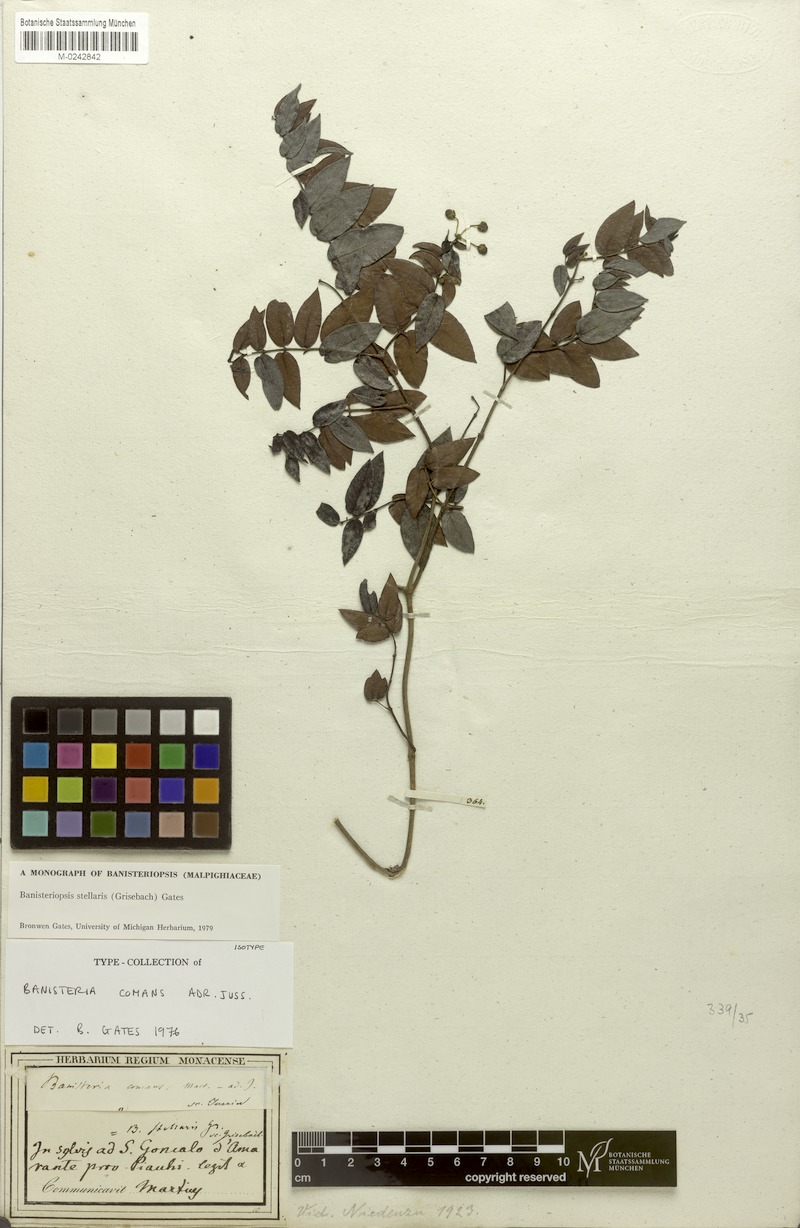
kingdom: Plantae
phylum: Tracheophyta
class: Magnoliopsida
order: Malpighiales
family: Malpighiaceae
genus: Banisteriopsis
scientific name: Banisteriopsis stellaris
